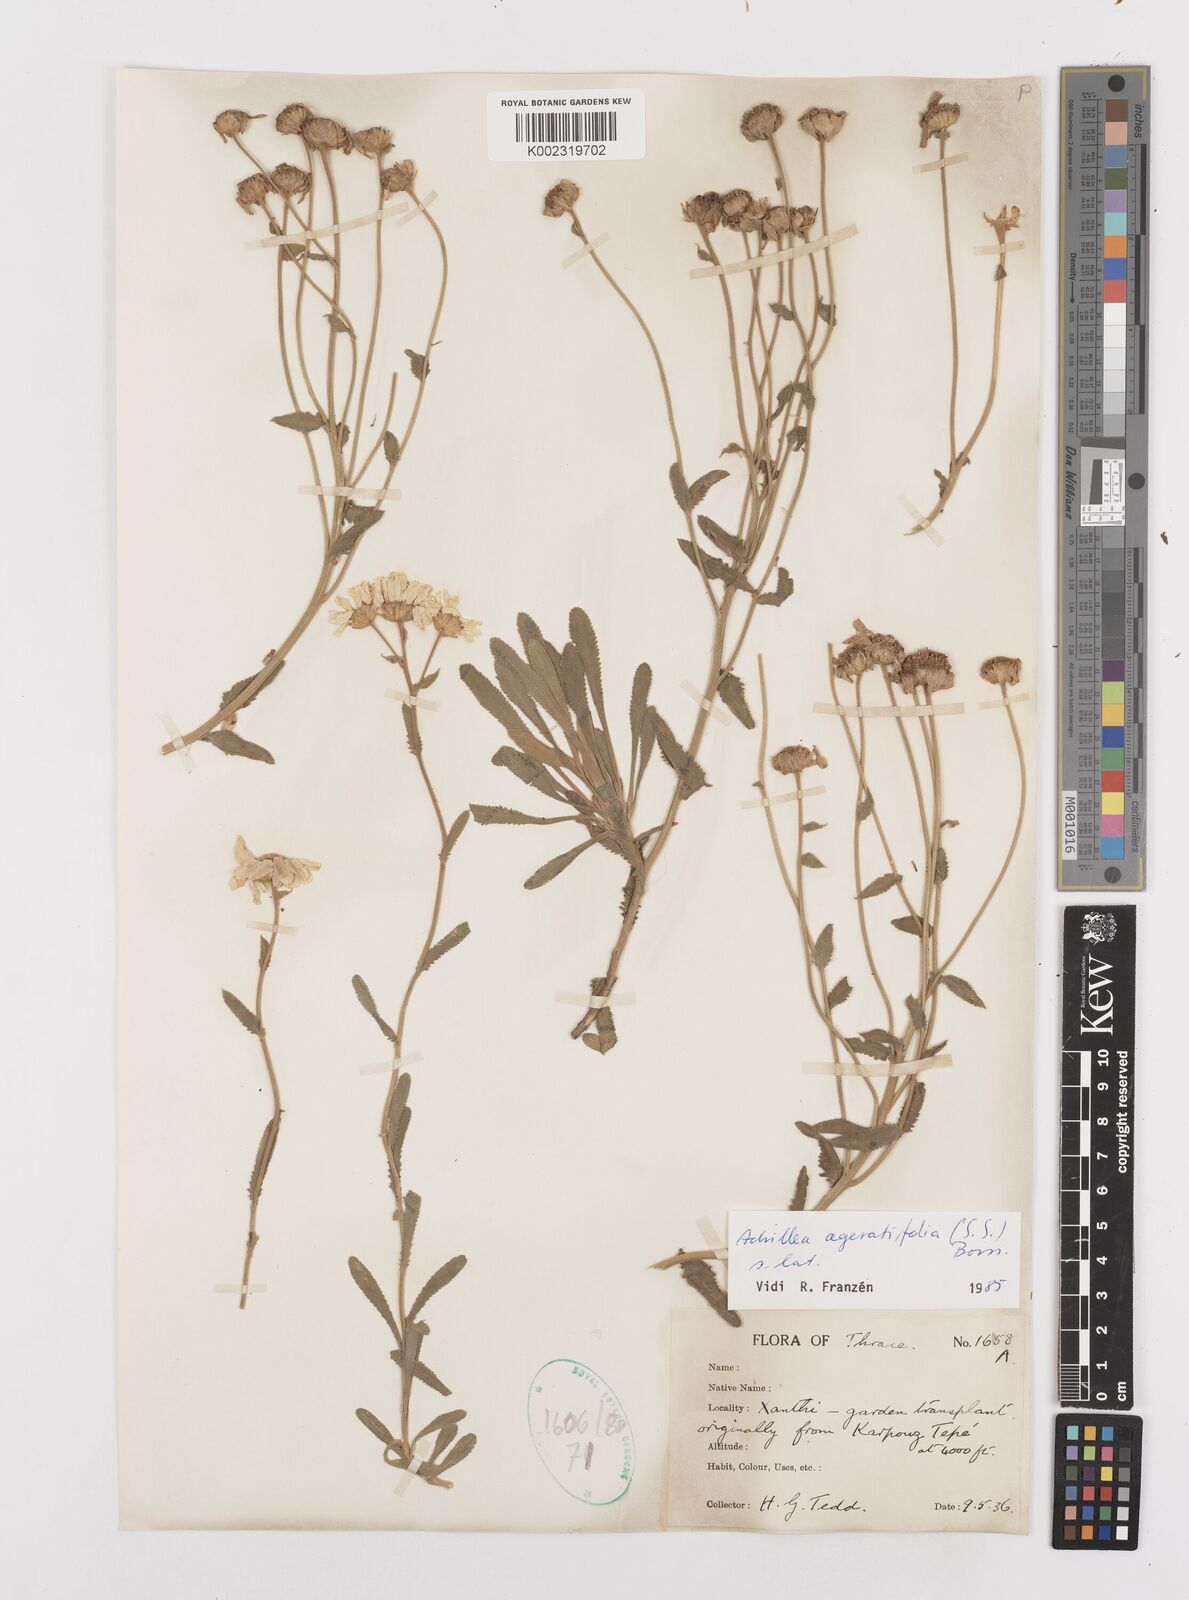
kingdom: Plantae
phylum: Tracheophyta
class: Magnoliopsida
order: Asterales
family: Asteraceae
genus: Achillea
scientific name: Achillea ageratifolia
